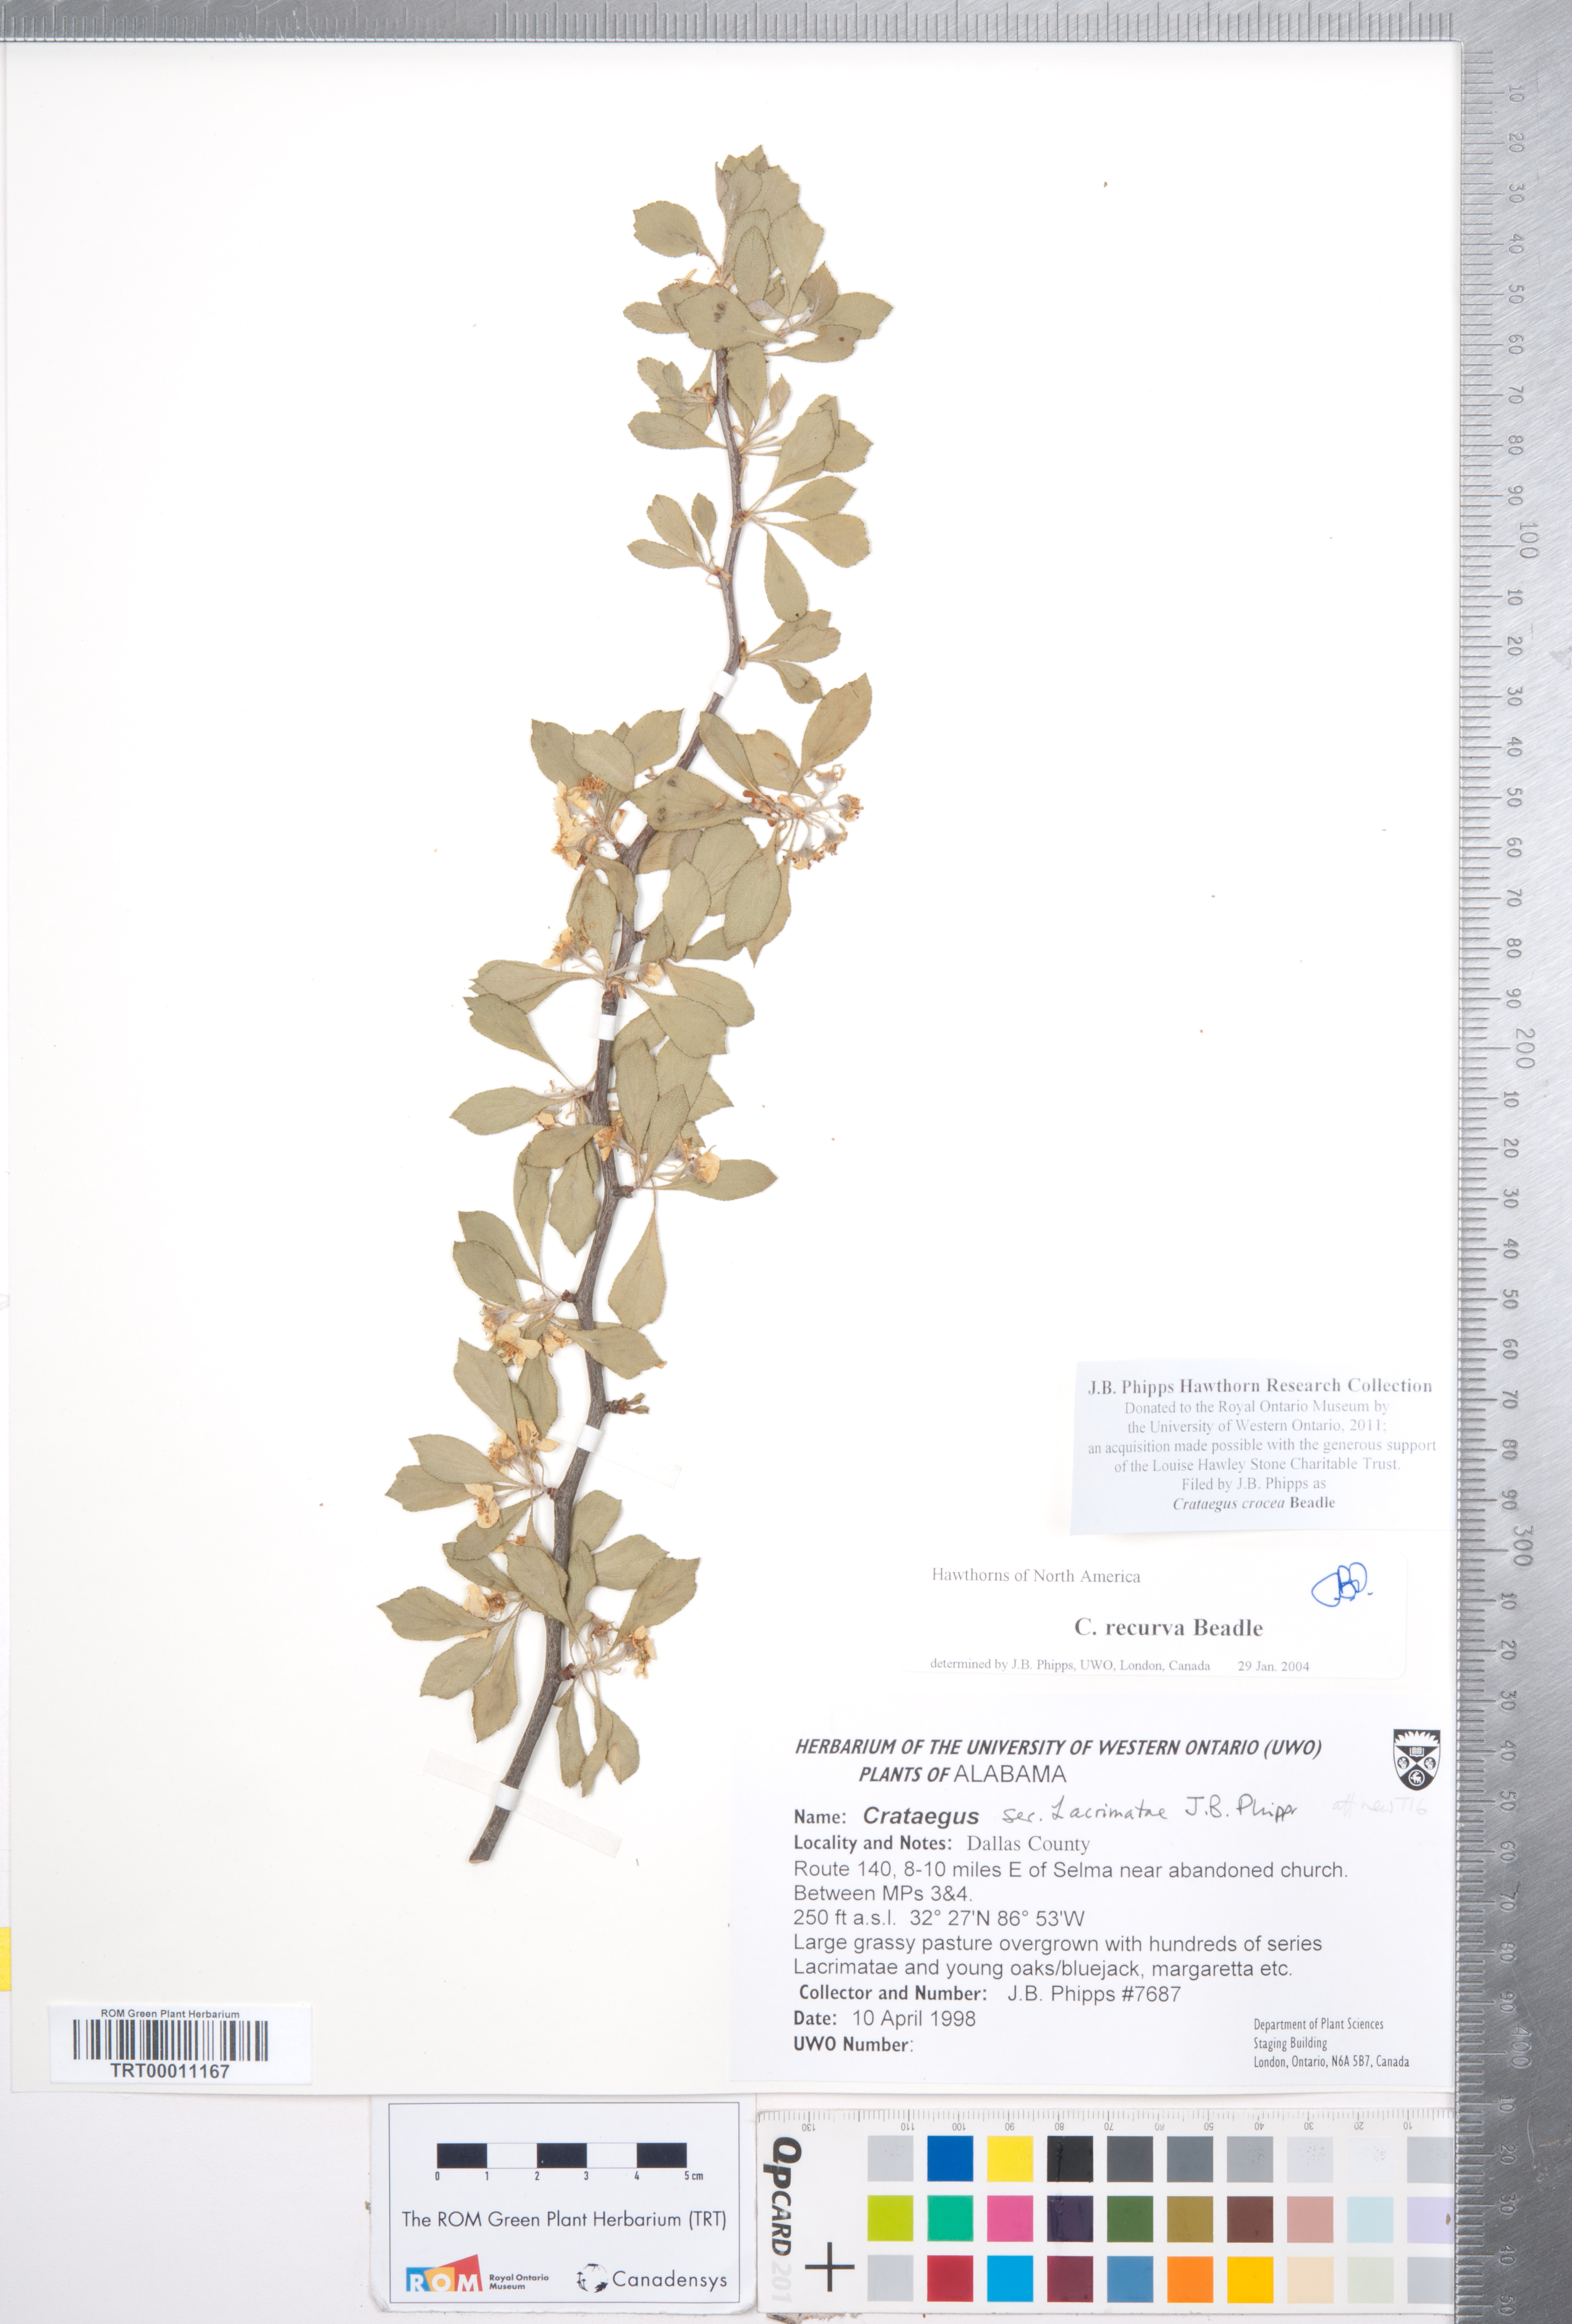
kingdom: Plantae
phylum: Tracheophyta
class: Magnoliopsida
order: Rosales
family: Rosaceae
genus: Crataegus
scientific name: Crataegus lassa
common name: Florida hawthorn
